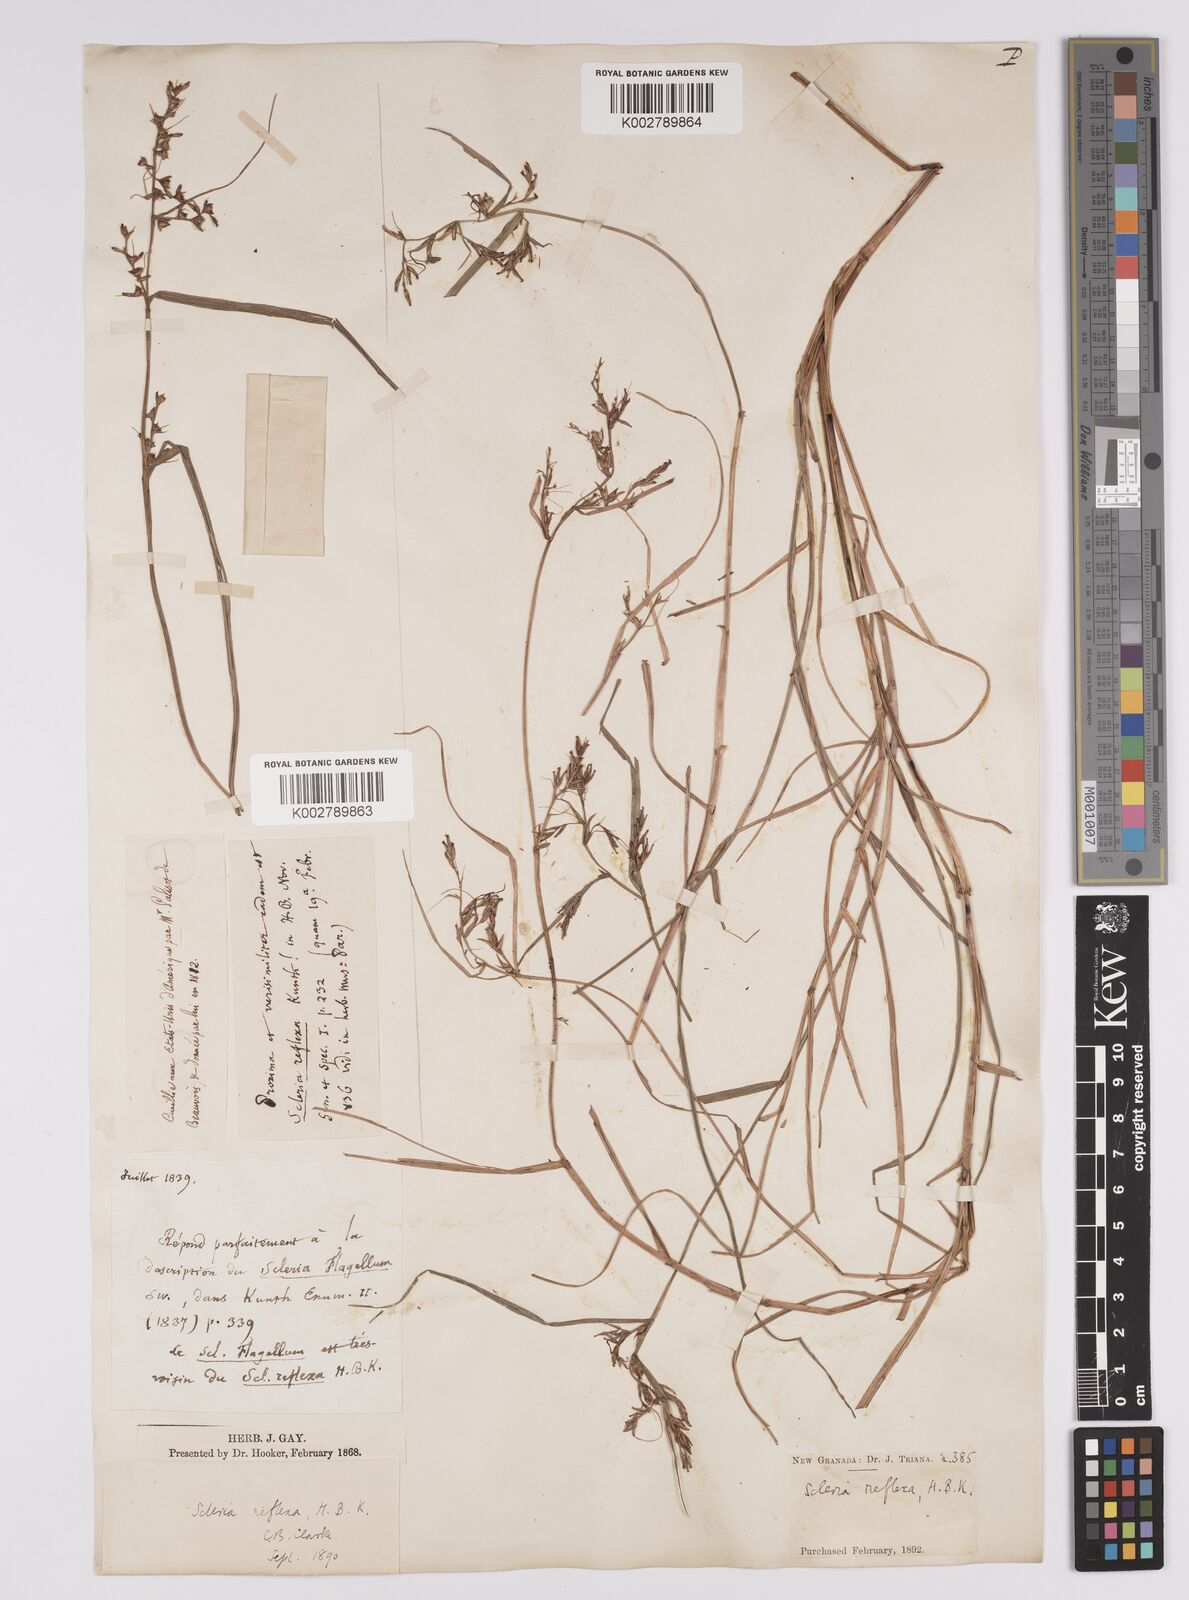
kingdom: Plantae
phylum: Tracheophyta
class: Liliopsida
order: Poales
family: Cyperaceae
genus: Scleria
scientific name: Scleria
